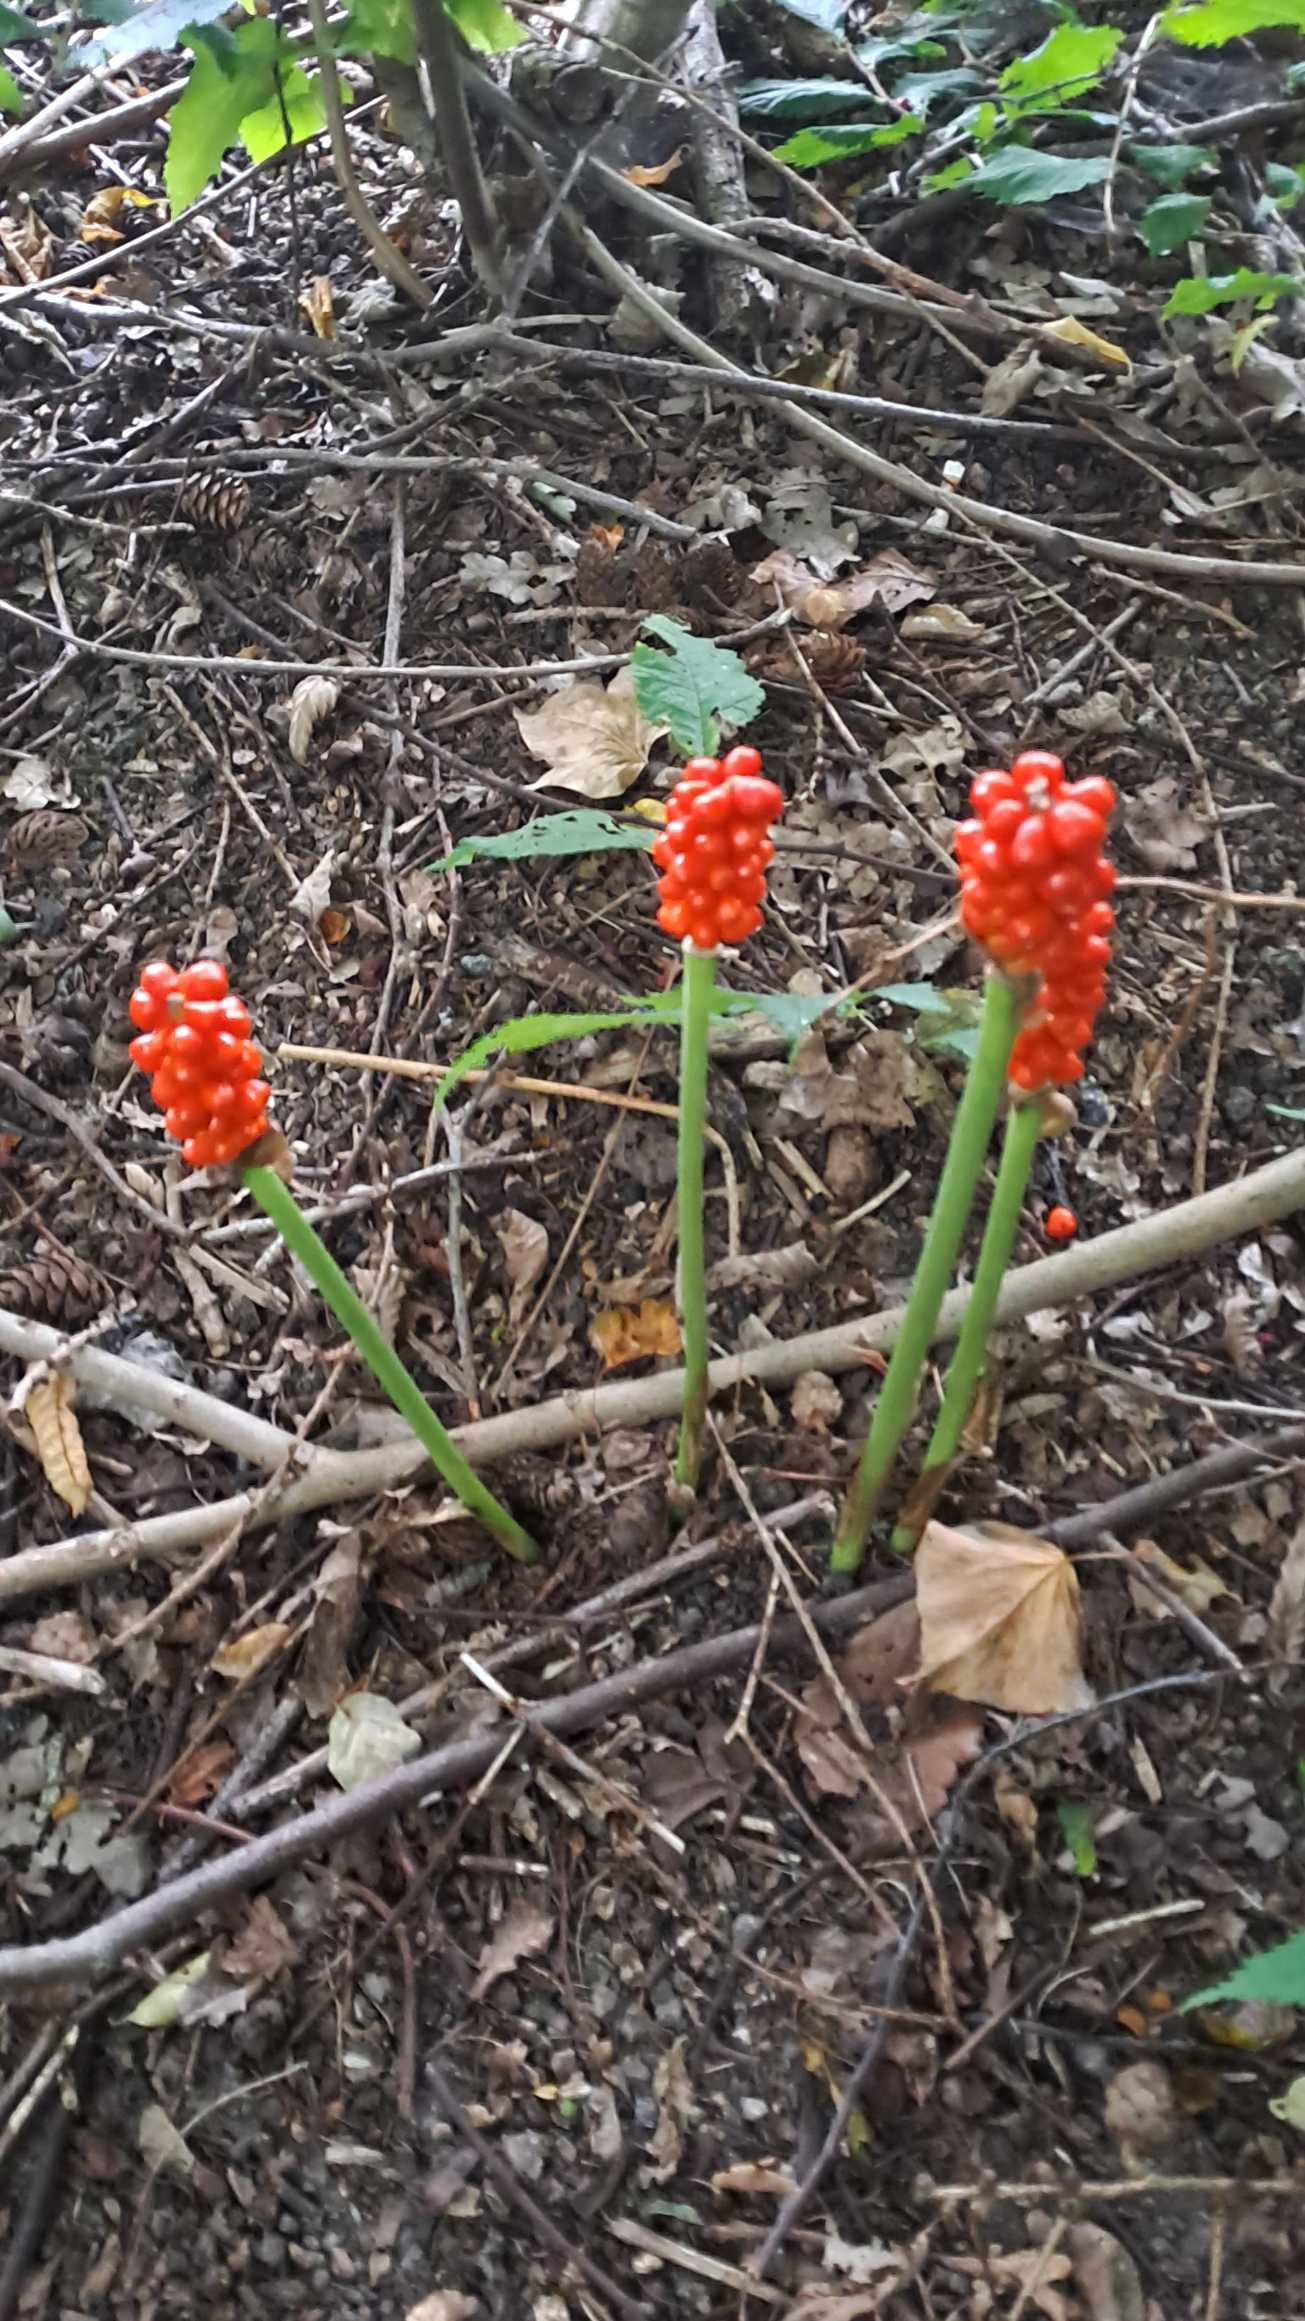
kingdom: Plantae
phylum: Tracheophyta
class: Liliopsida
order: Alismatales
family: Araceae
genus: Arum
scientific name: Arum
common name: Arumslægten
